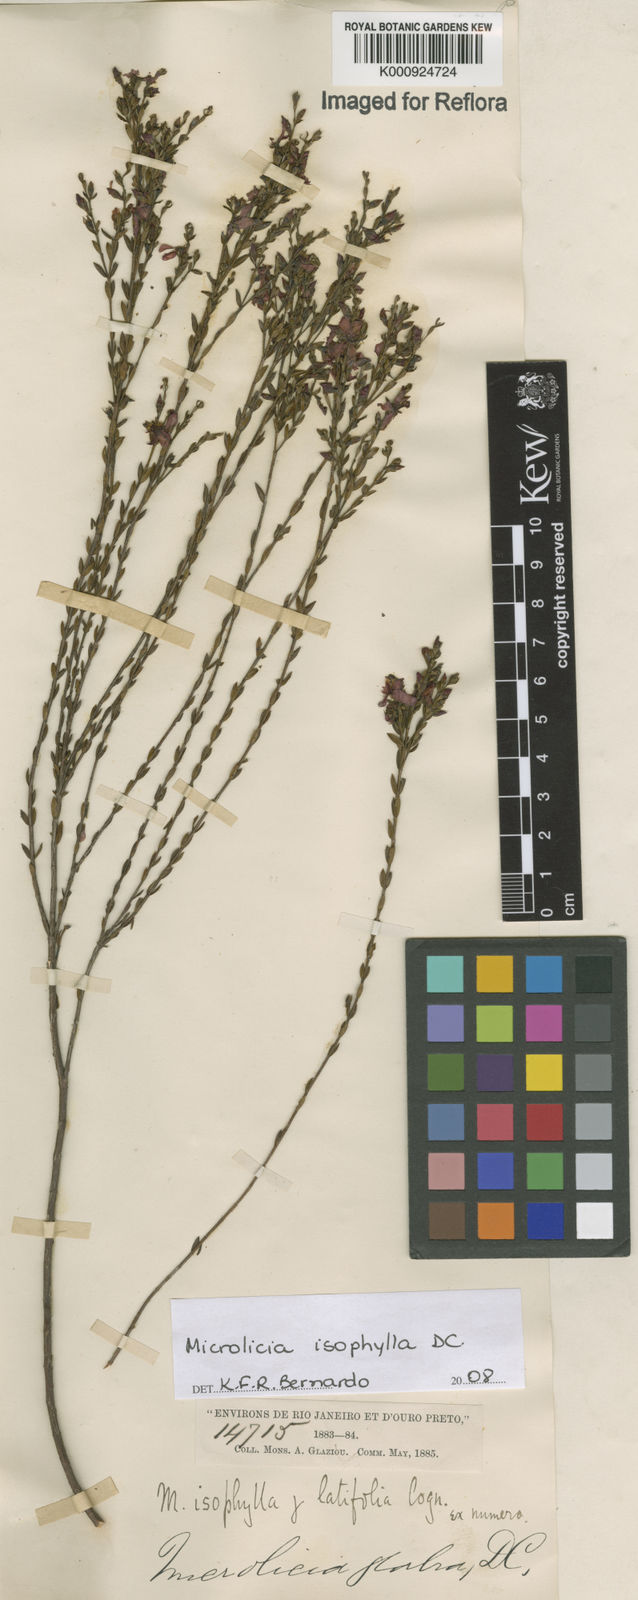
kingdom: Plantae
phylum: Tracheophyta
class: Magnoliopsida
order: Myrtales
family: Melastomataceae
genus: Microlicia
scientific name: Microlicia isophylla
